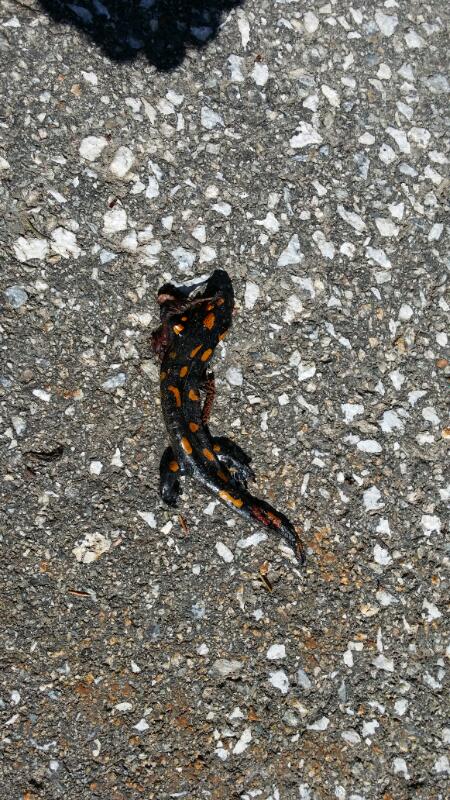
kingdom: Animalia
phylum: Chordata
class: Amphibia
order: Caudata
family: Salamandridae
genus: Salamandra
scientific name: Salamandra salamandra
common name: Fire salamander
